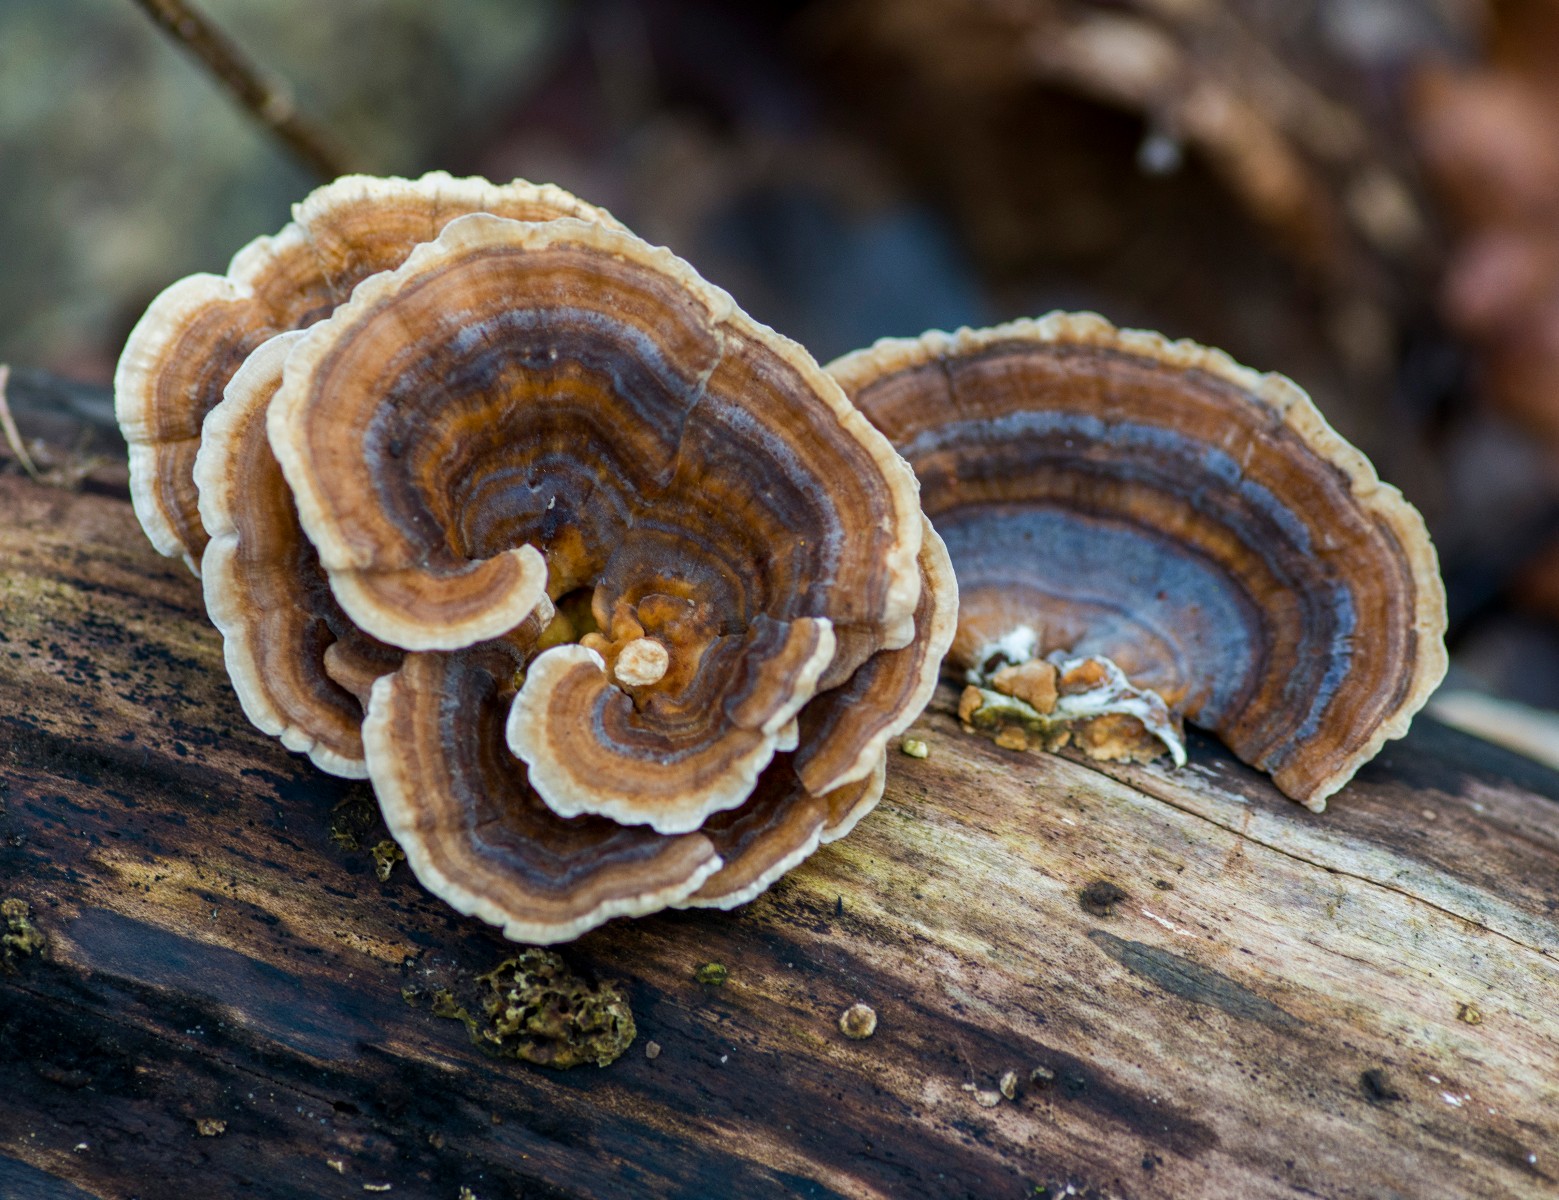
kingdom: Fungi
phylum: Basidiomycota
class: Agaricomycetes
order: Polyporales
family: Polyporaceae
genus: Trametes
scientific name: Trametes versicolor
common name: broget læderporesvamp
